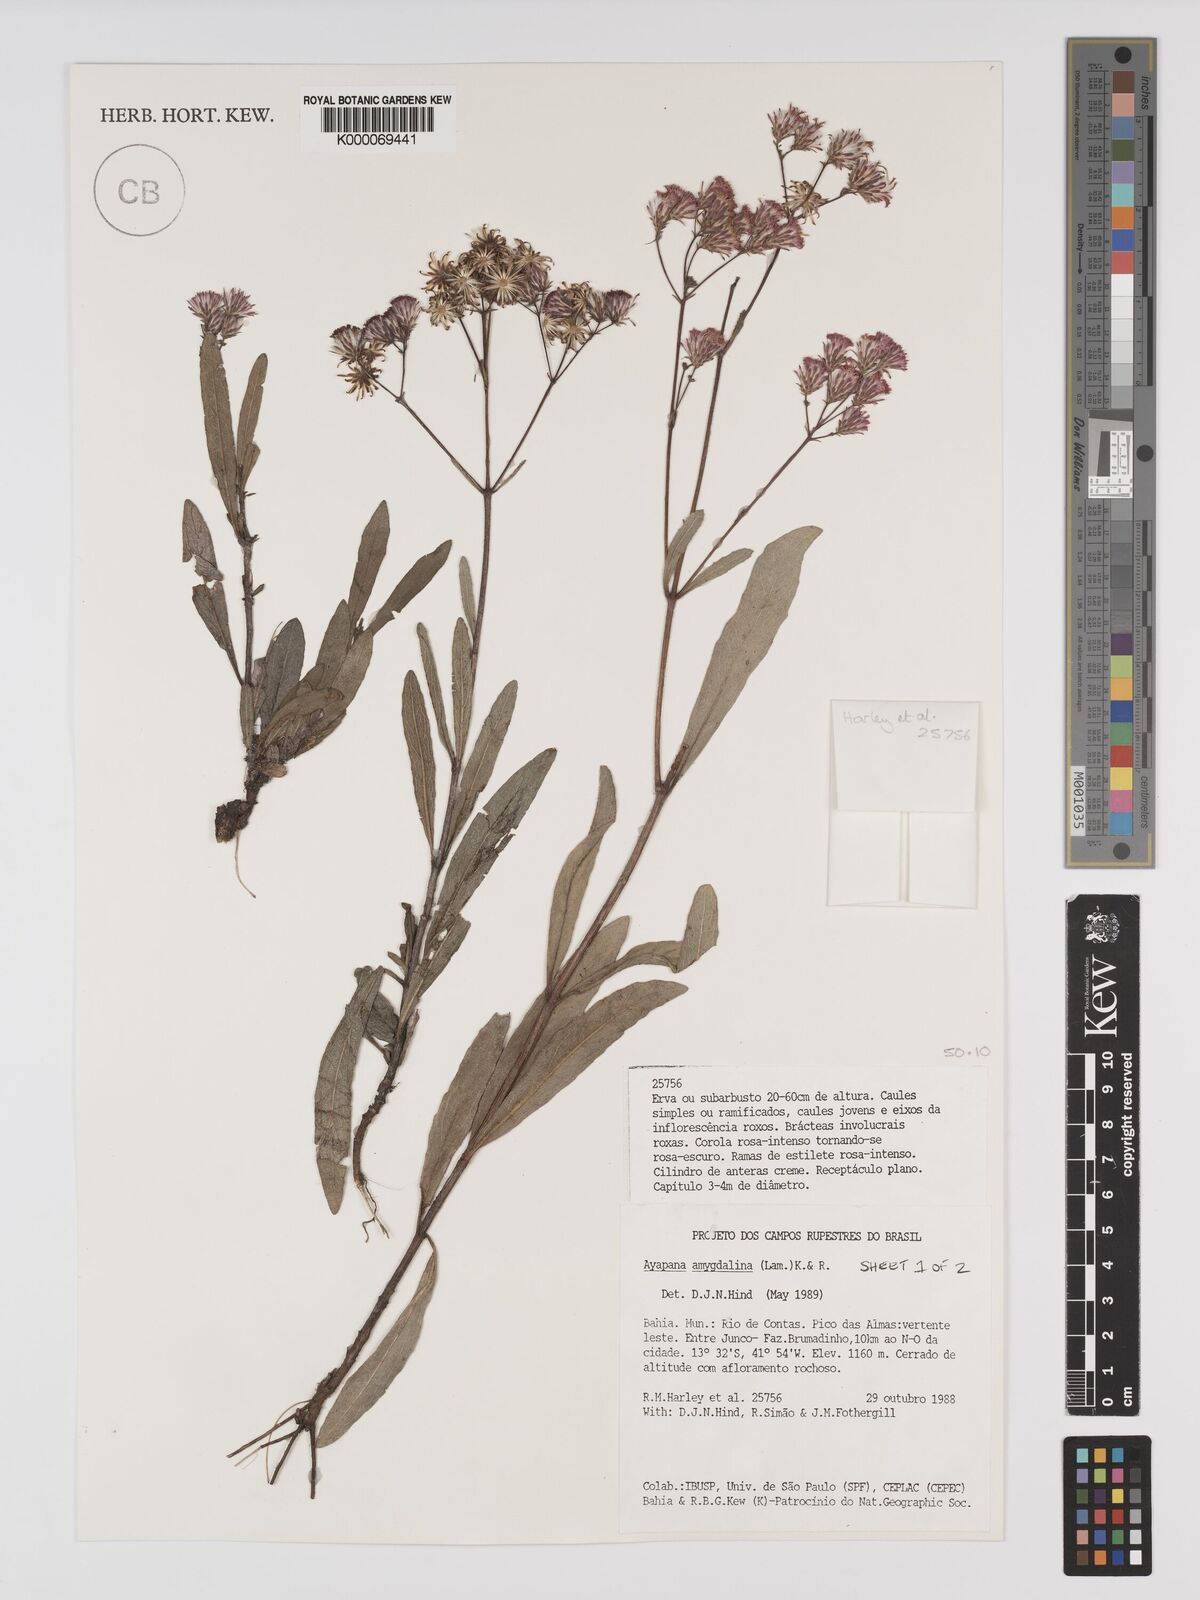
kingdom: Plantae
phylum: Tracheophyta
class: Magnoliopsida
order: Asterales
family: Asteraceae
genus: Ayapana
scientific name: Ayapana amygdalina
